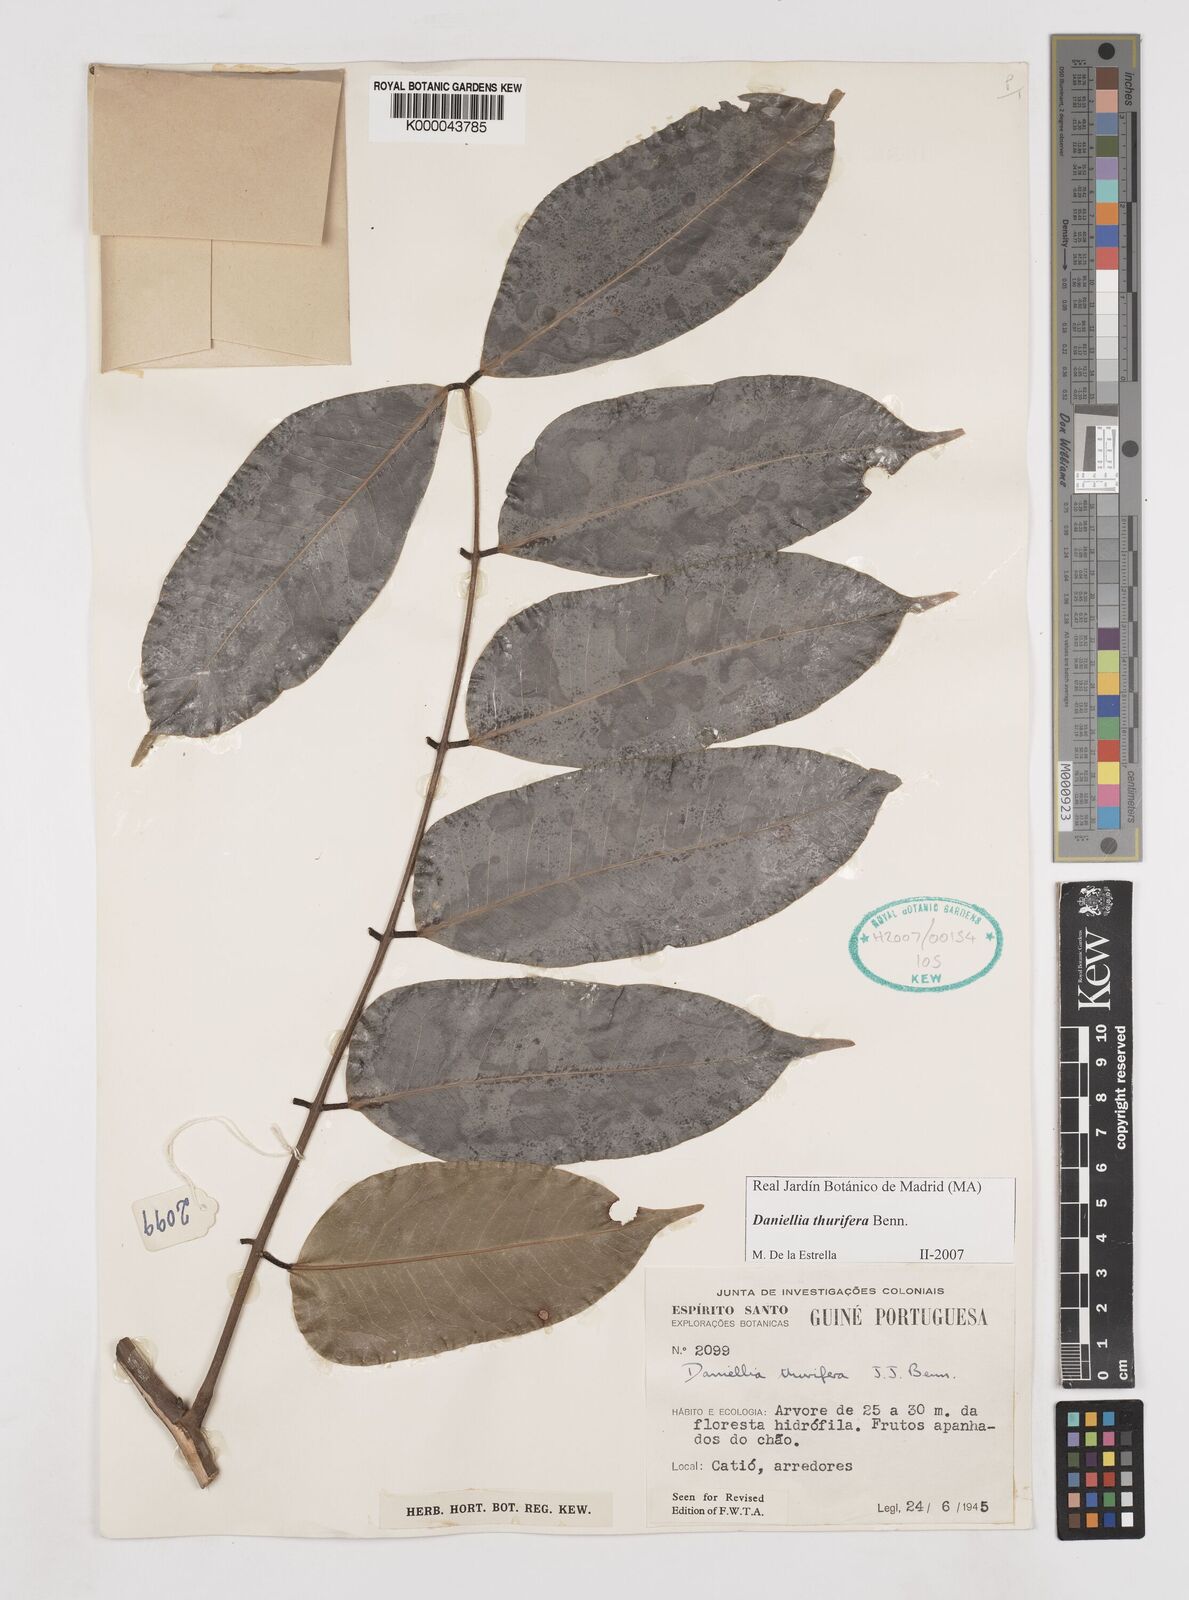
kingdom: Plantae
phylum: Tracheophyta
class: Magnoliopsida
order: Fabales
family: Fabaceae
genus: Daniellia
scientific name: Daniellia thurifera
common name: Sudan copal
